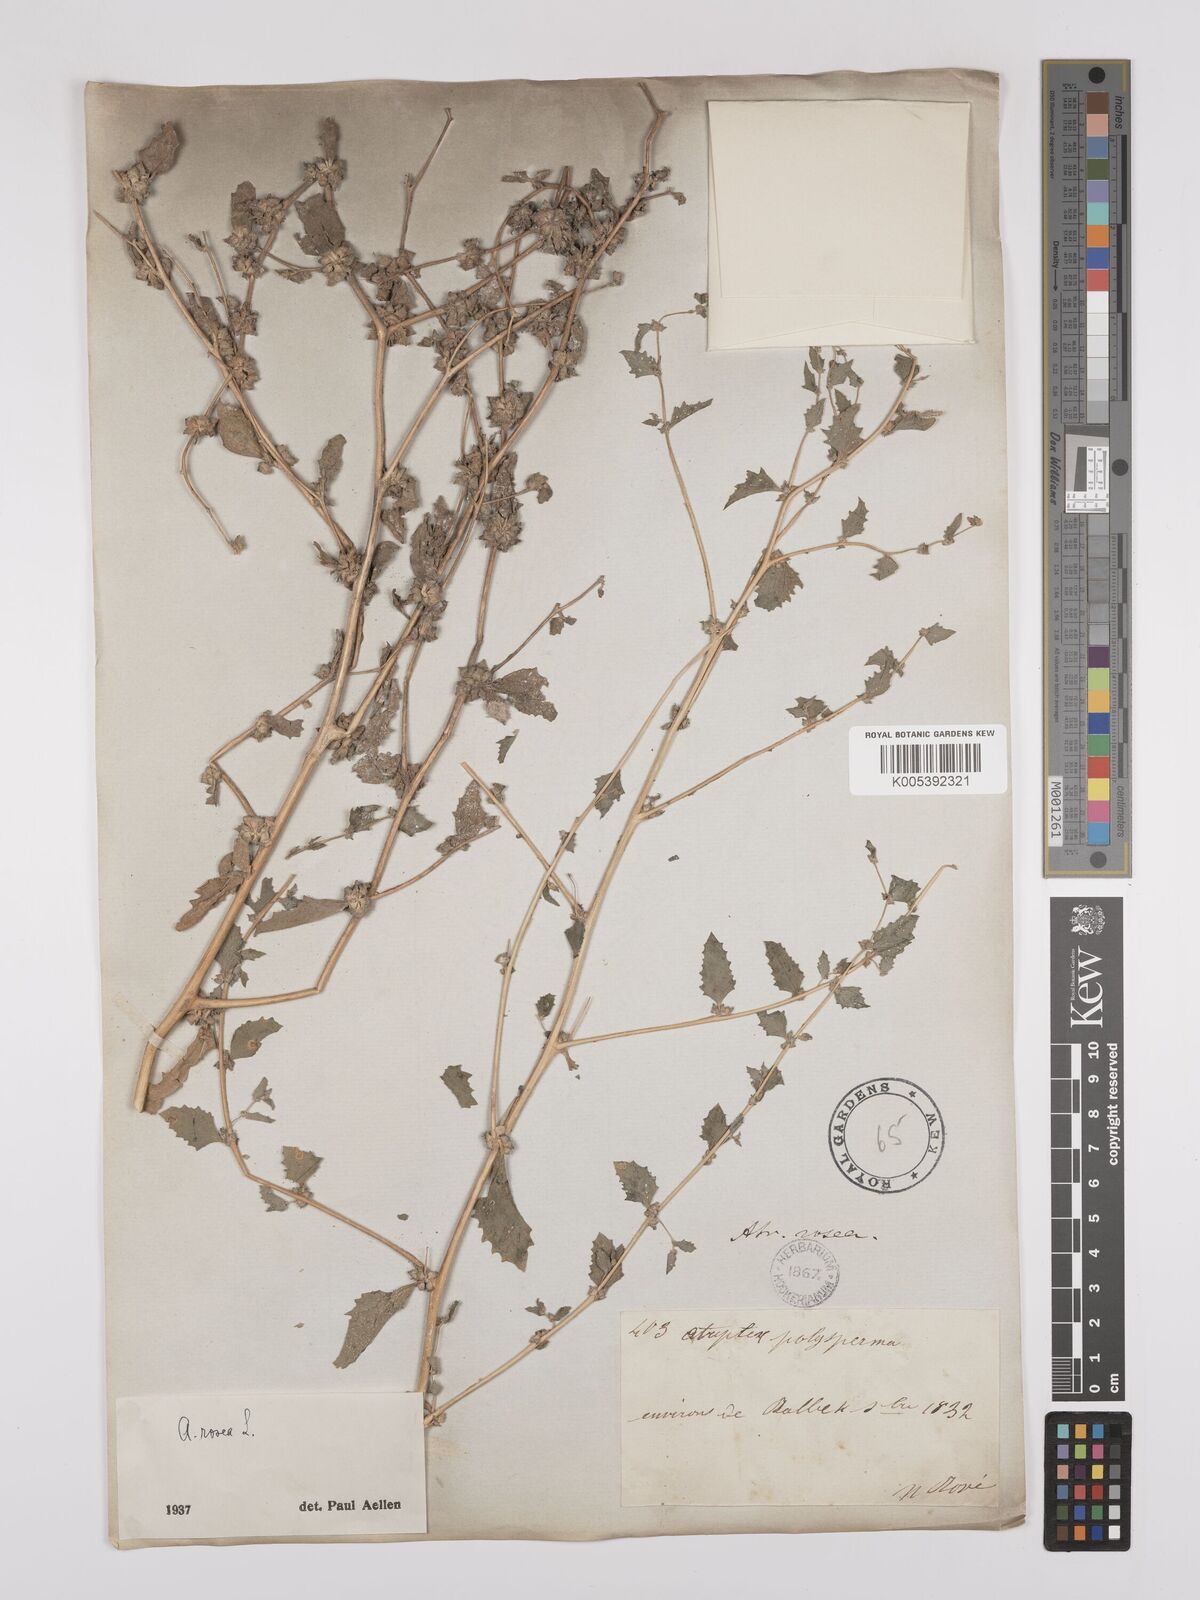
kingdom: Plantae
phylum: Tracheophyta
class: Magnoliopsida
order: Caryophyllales
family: Amaranthaceae
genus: Atriplex
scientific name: Atriplex
